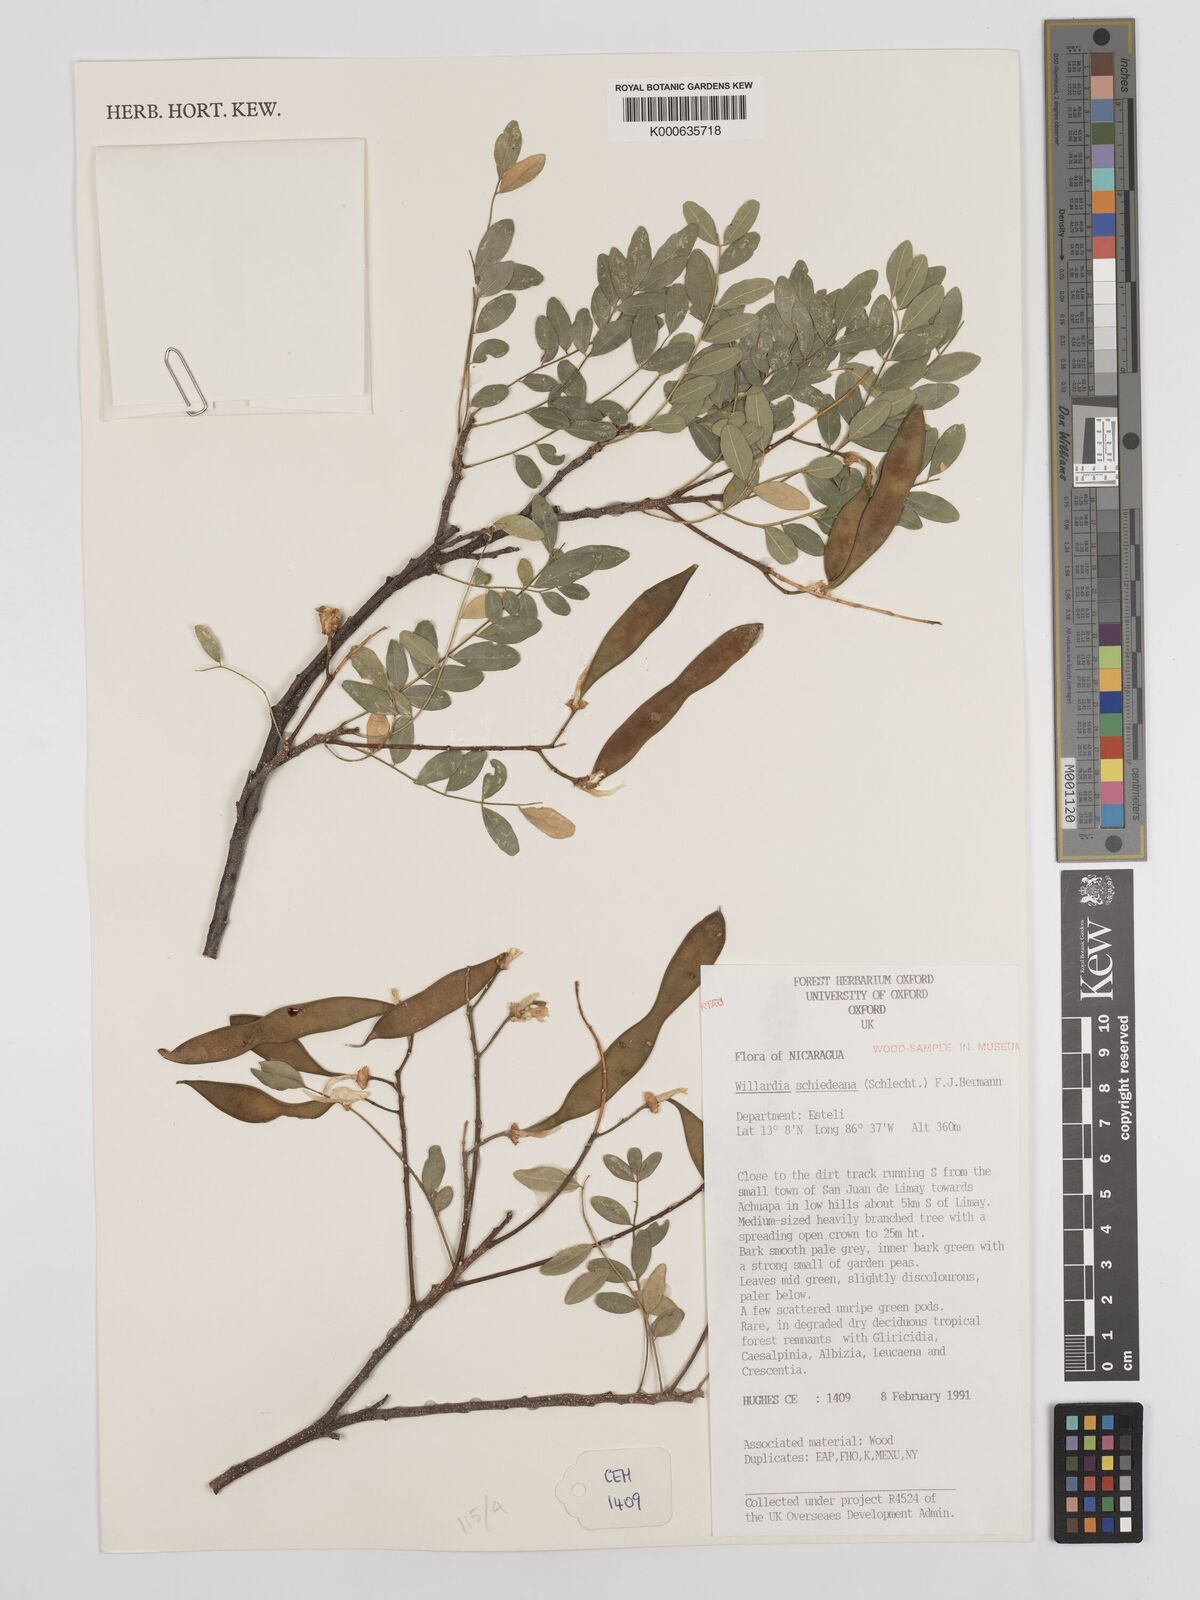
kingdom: Plantae
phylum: Tracheophyta
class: Magnoliopsida
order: Fabales
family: Fabaceae
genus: Lonchocarpus
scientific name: Lonchocarpus schiedeanus
